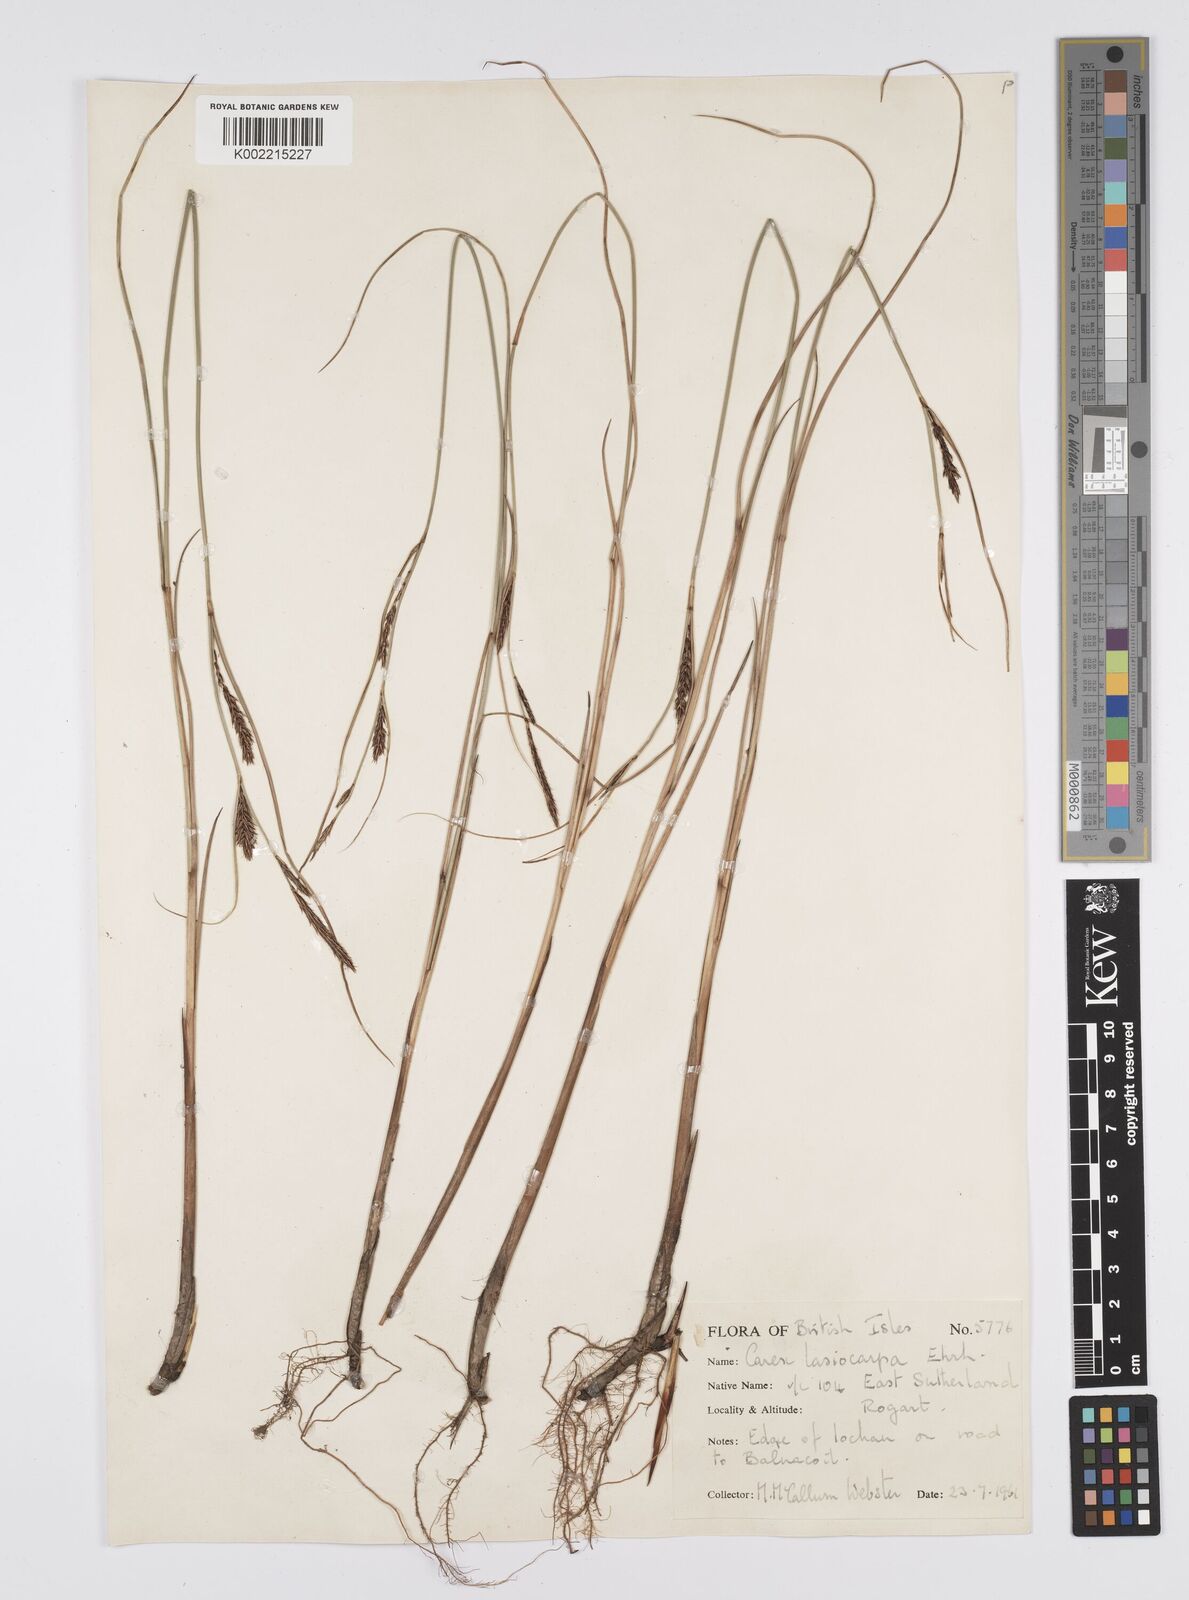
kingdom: Plantae
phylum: Tracheophyta
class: Liliopsida
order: Poales
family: Cyperaceae
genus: Carex
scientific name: Carex lasiocarpa
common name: Slender sedge
